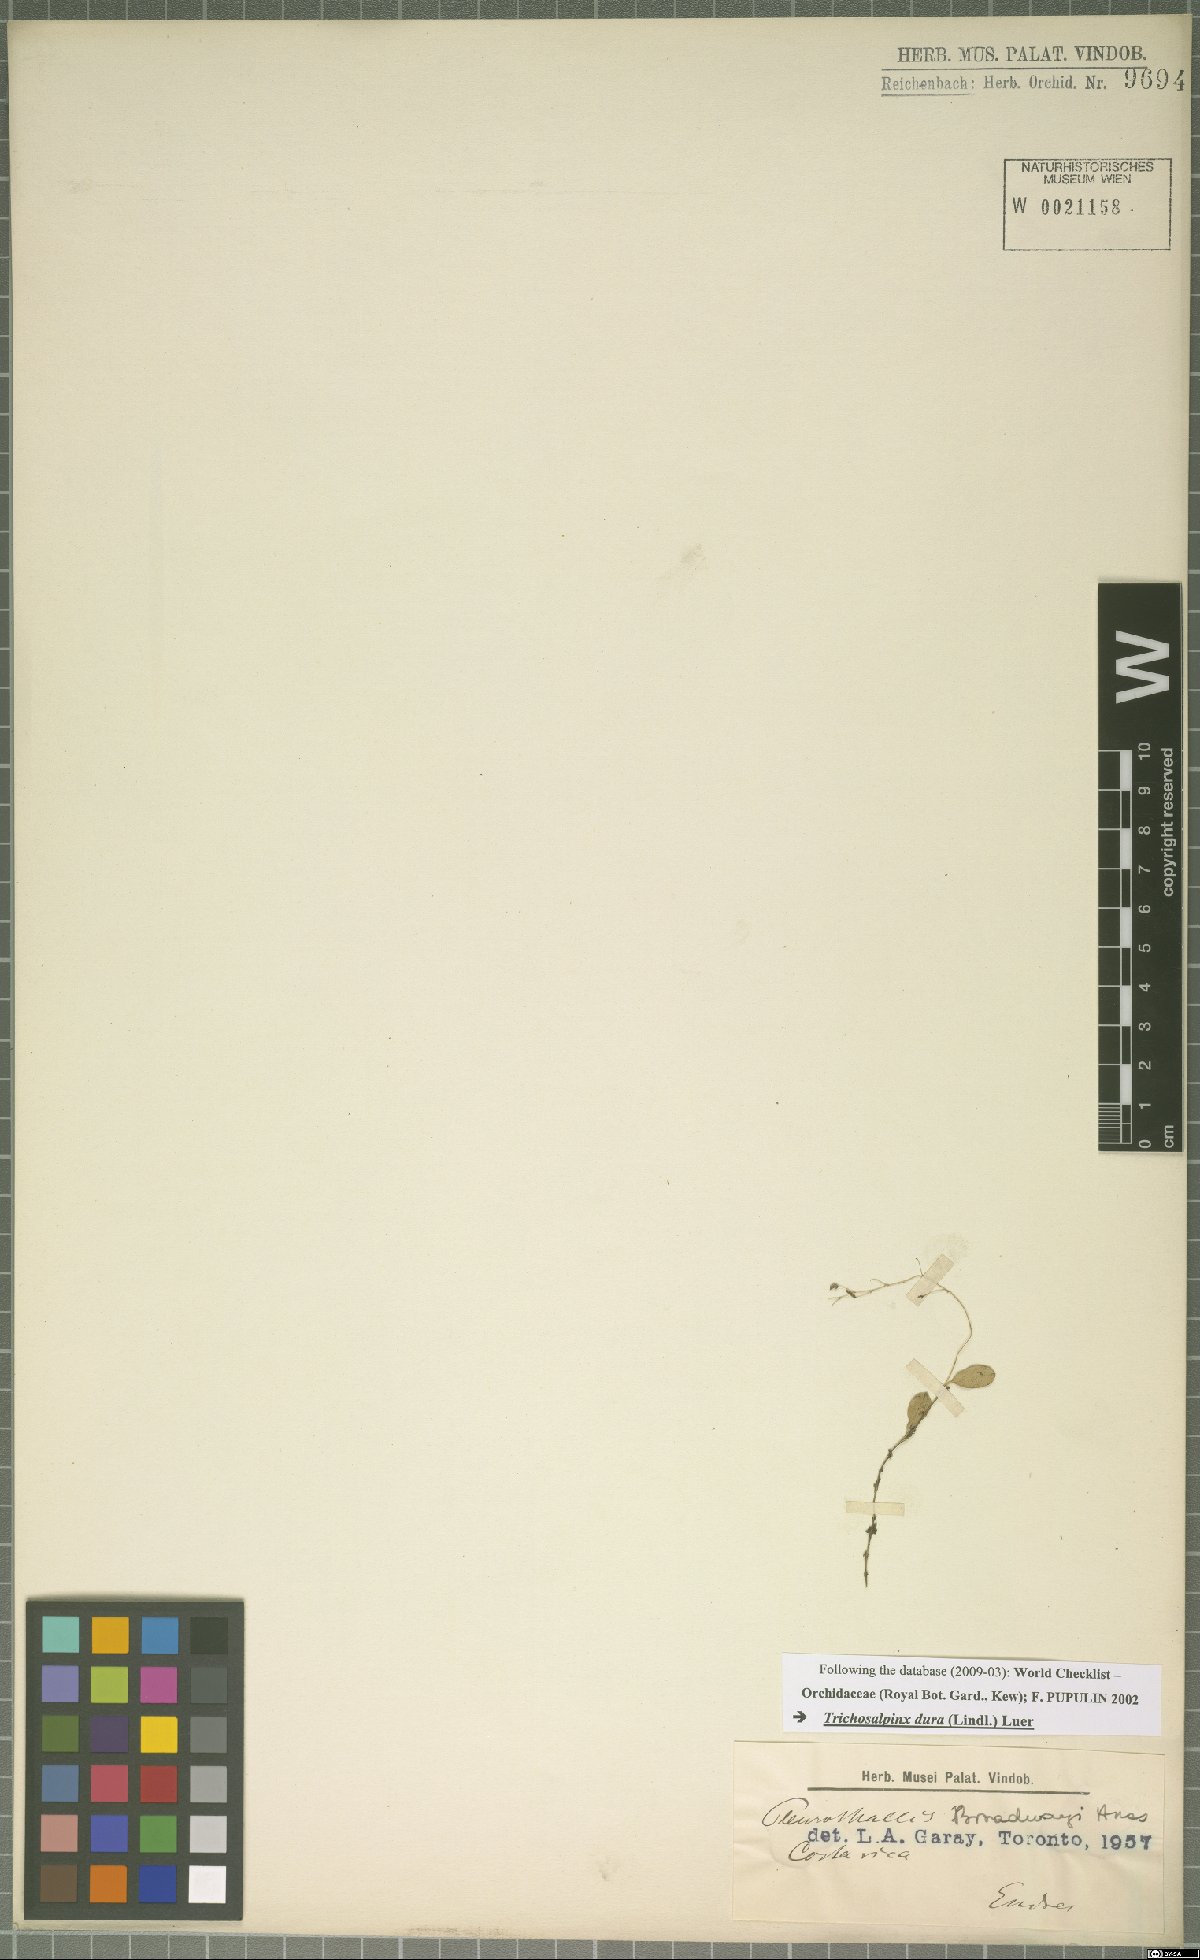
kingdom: Plantae
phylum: Tracheophyta
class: Liliopsida
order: Asparagales
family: Orchidaceae
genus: Trichosalpinx
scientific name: Trichosalpinx dura
